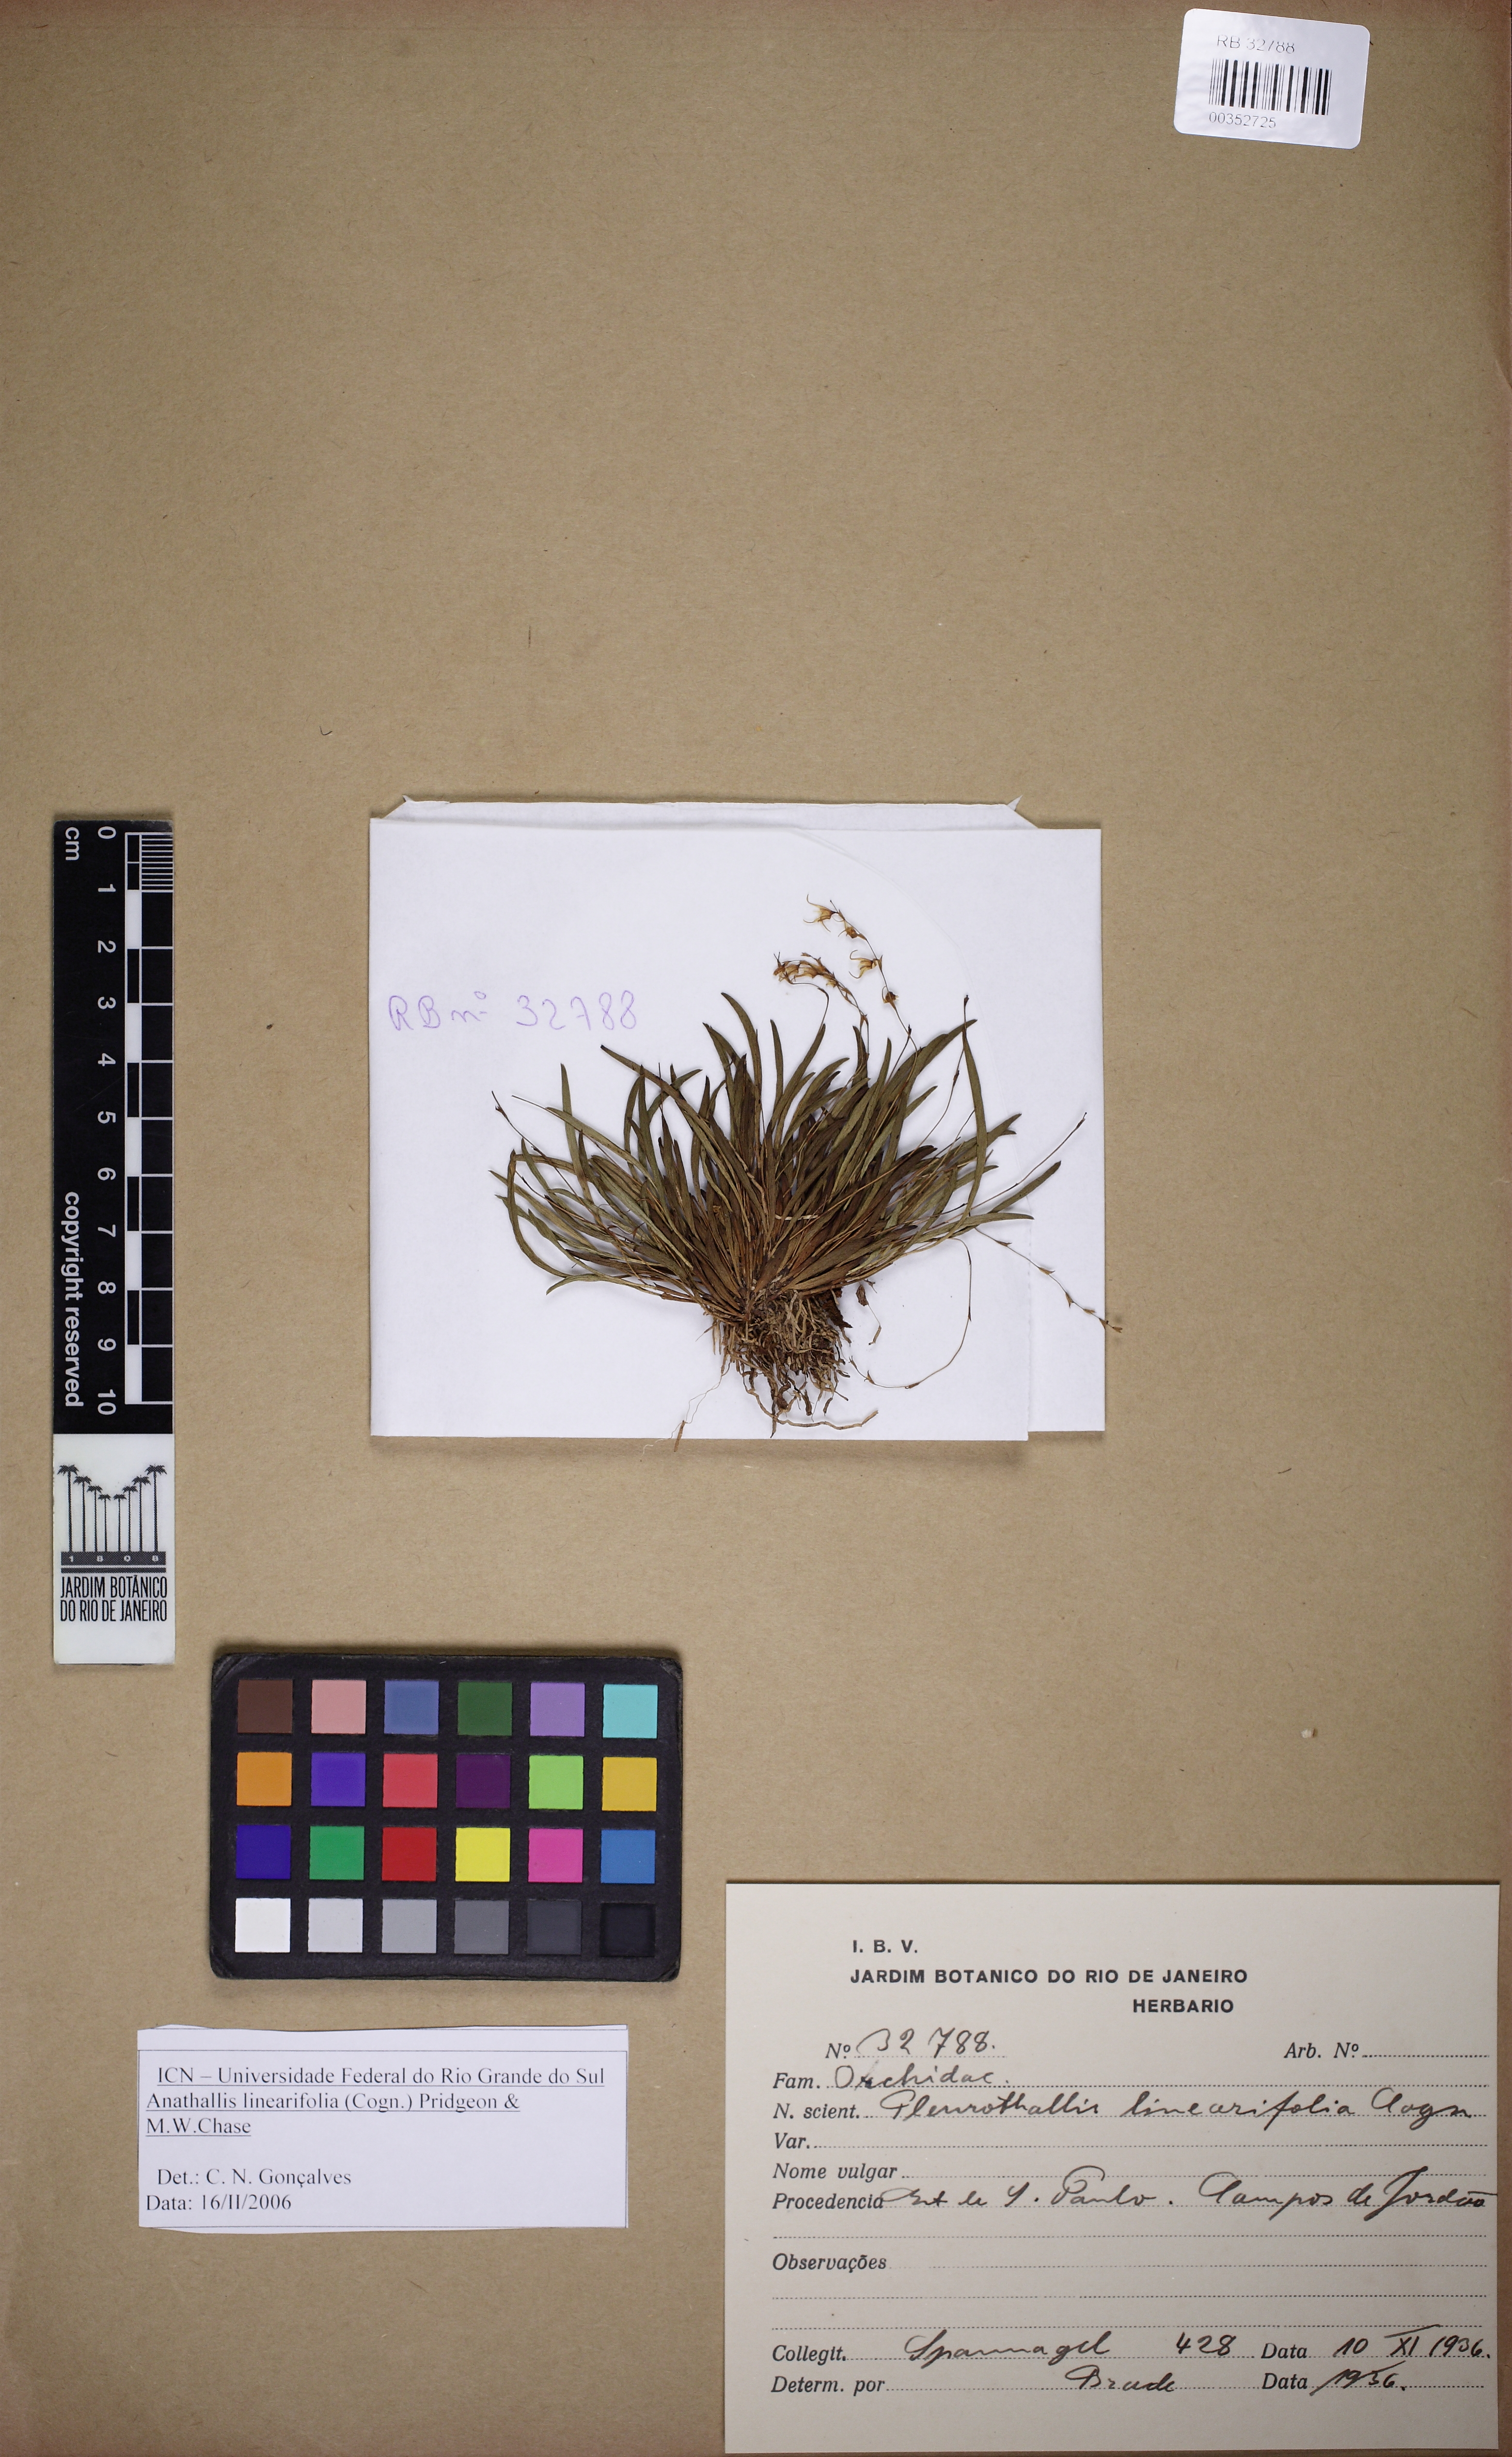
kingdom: Plantae
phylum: Tracheophyta
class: Liliopsida
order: Asparagales
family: Orchidaceae
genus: Anathallis
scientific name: Anathallis linearifolia
